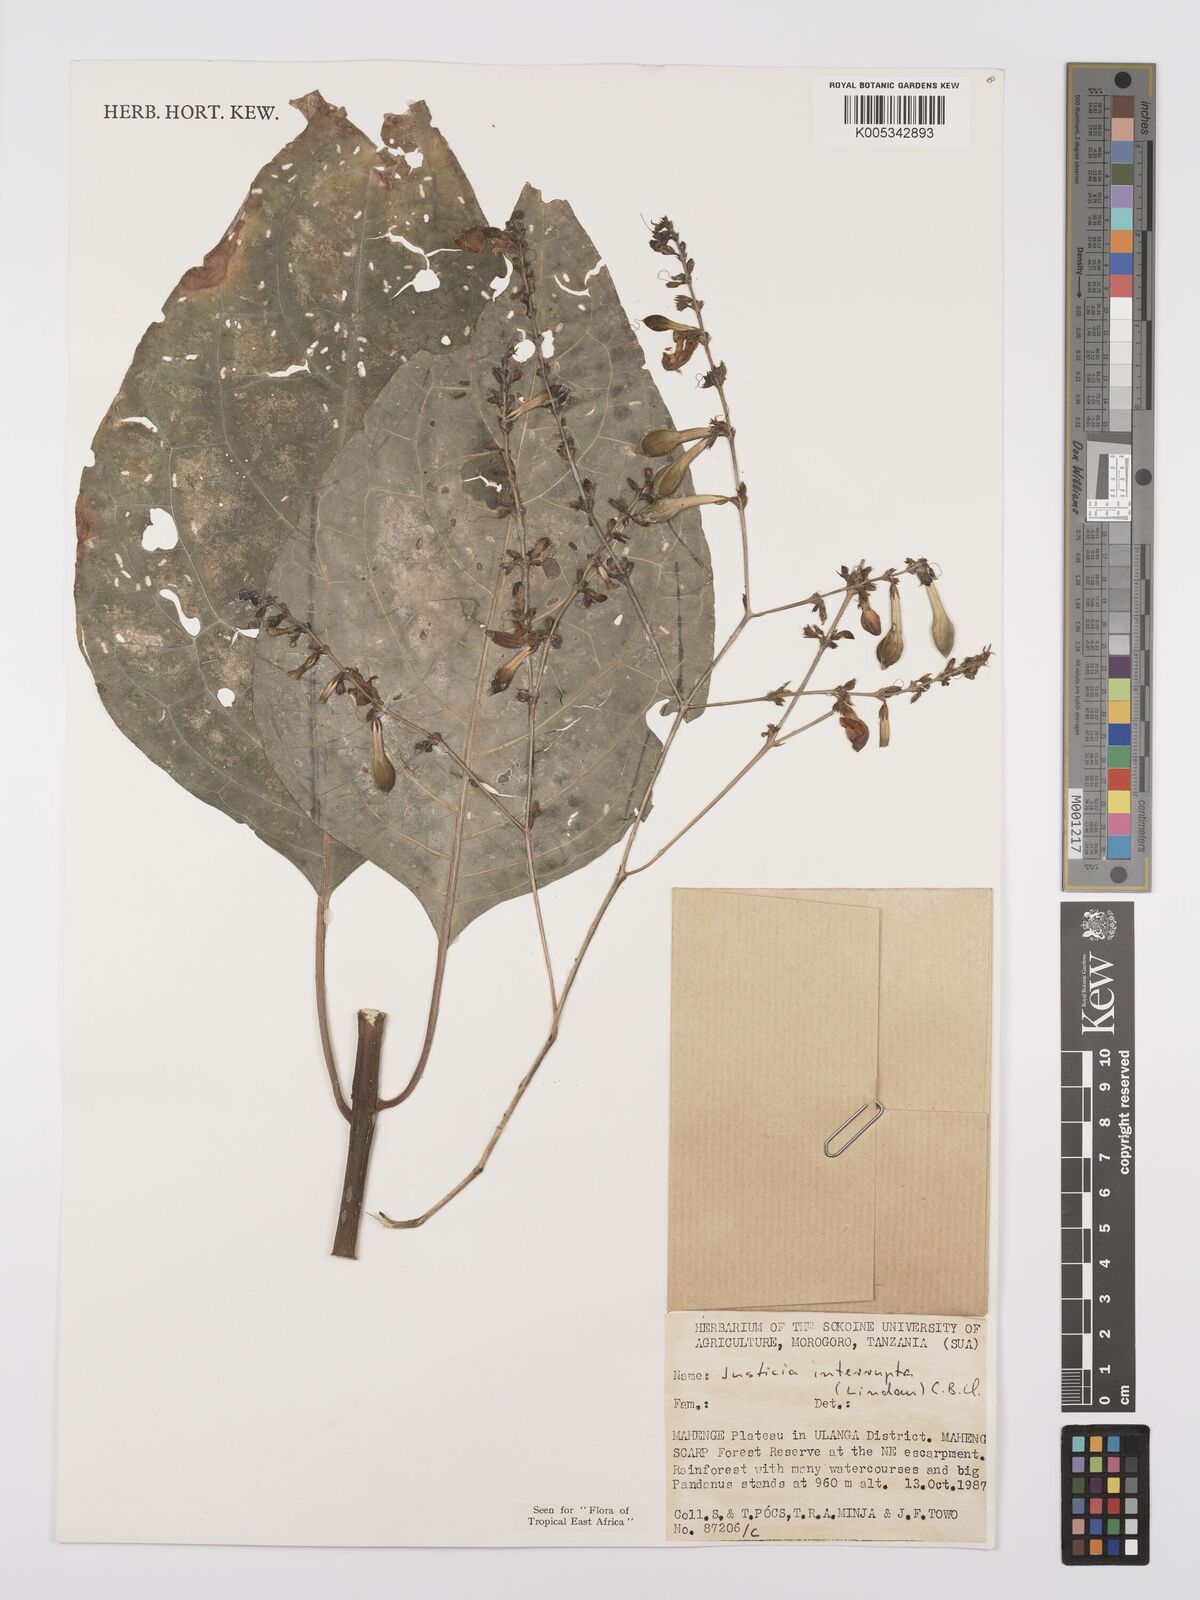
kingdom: Plantae
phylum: Tracheophyta
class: Magnoliopsida
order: Lamiales
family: Acanthaceae
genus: Justicia
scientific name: Justicia plectranthoides
